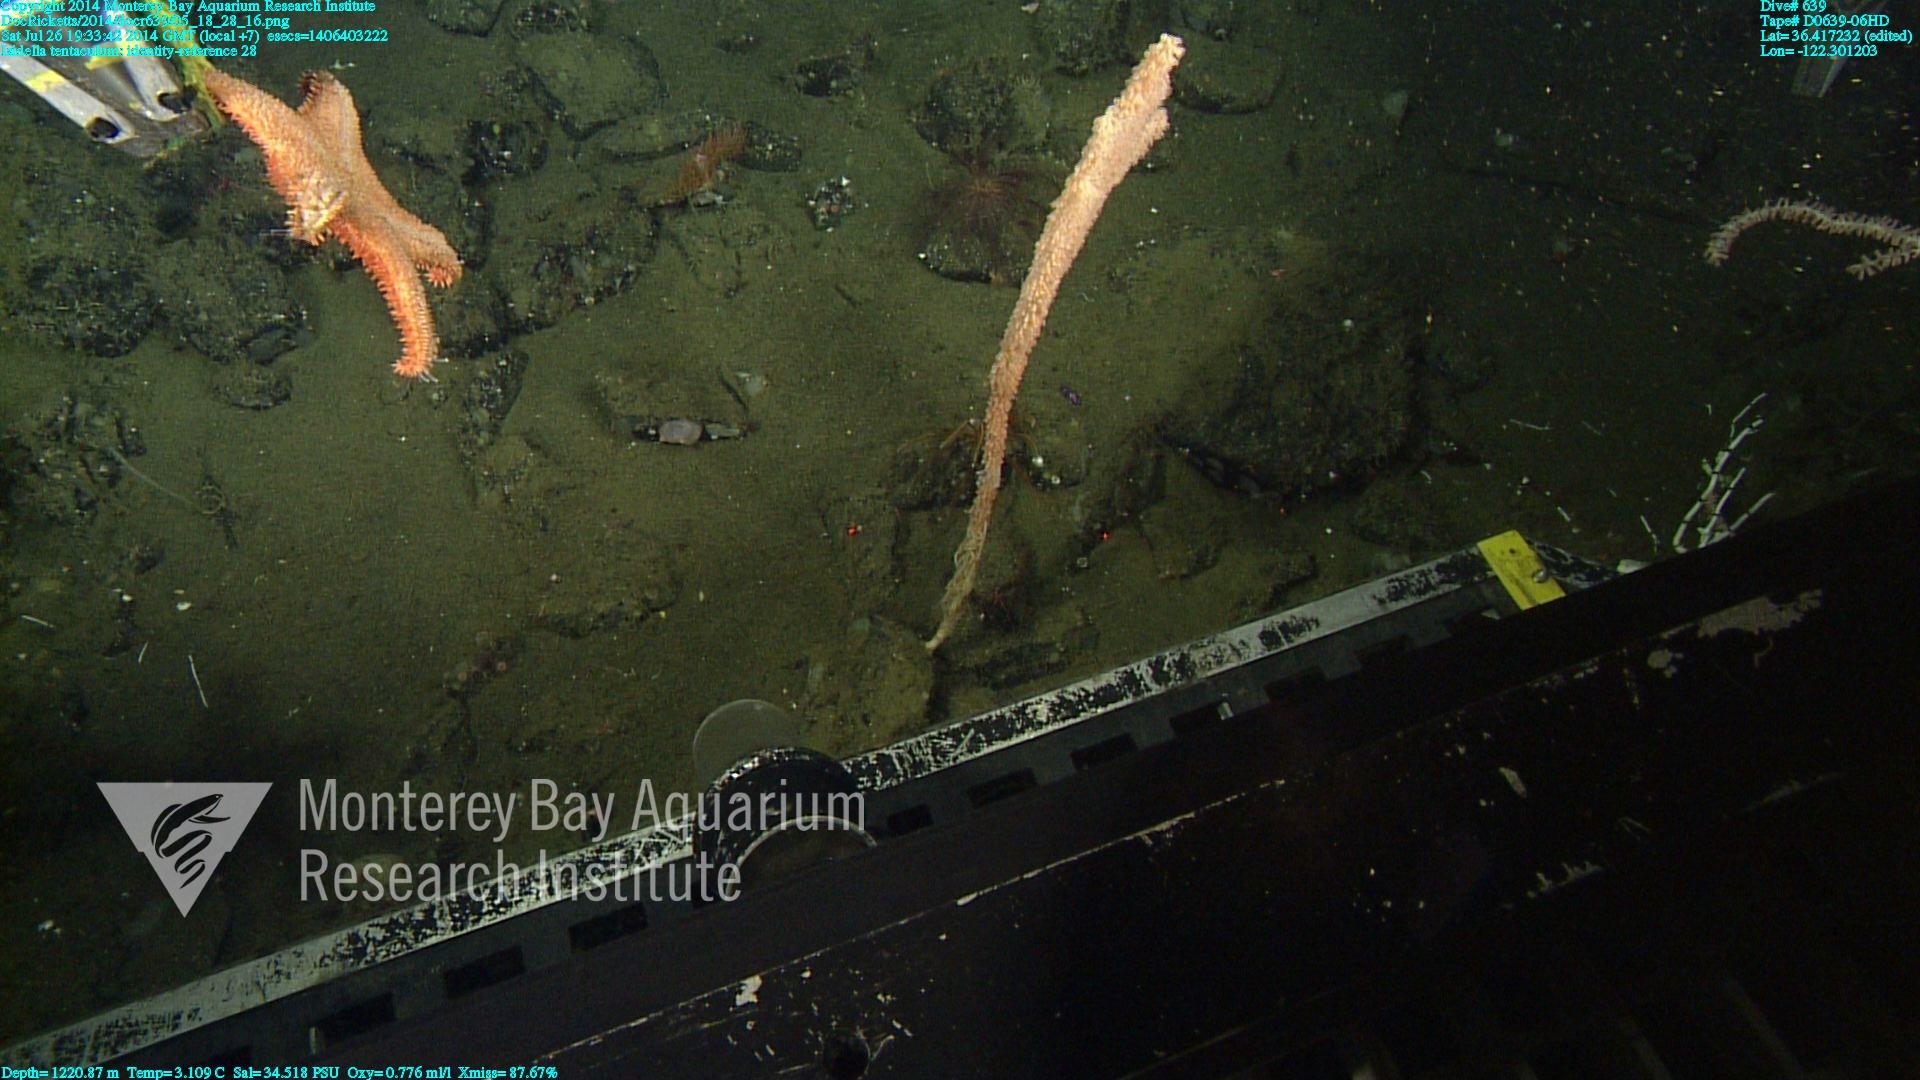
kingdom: Animalia
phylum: Cnidaria
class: Anthozoa
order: Scleralcyonacea
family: Keratoisididae
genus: Isidella
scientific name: Isidella tentaculum
